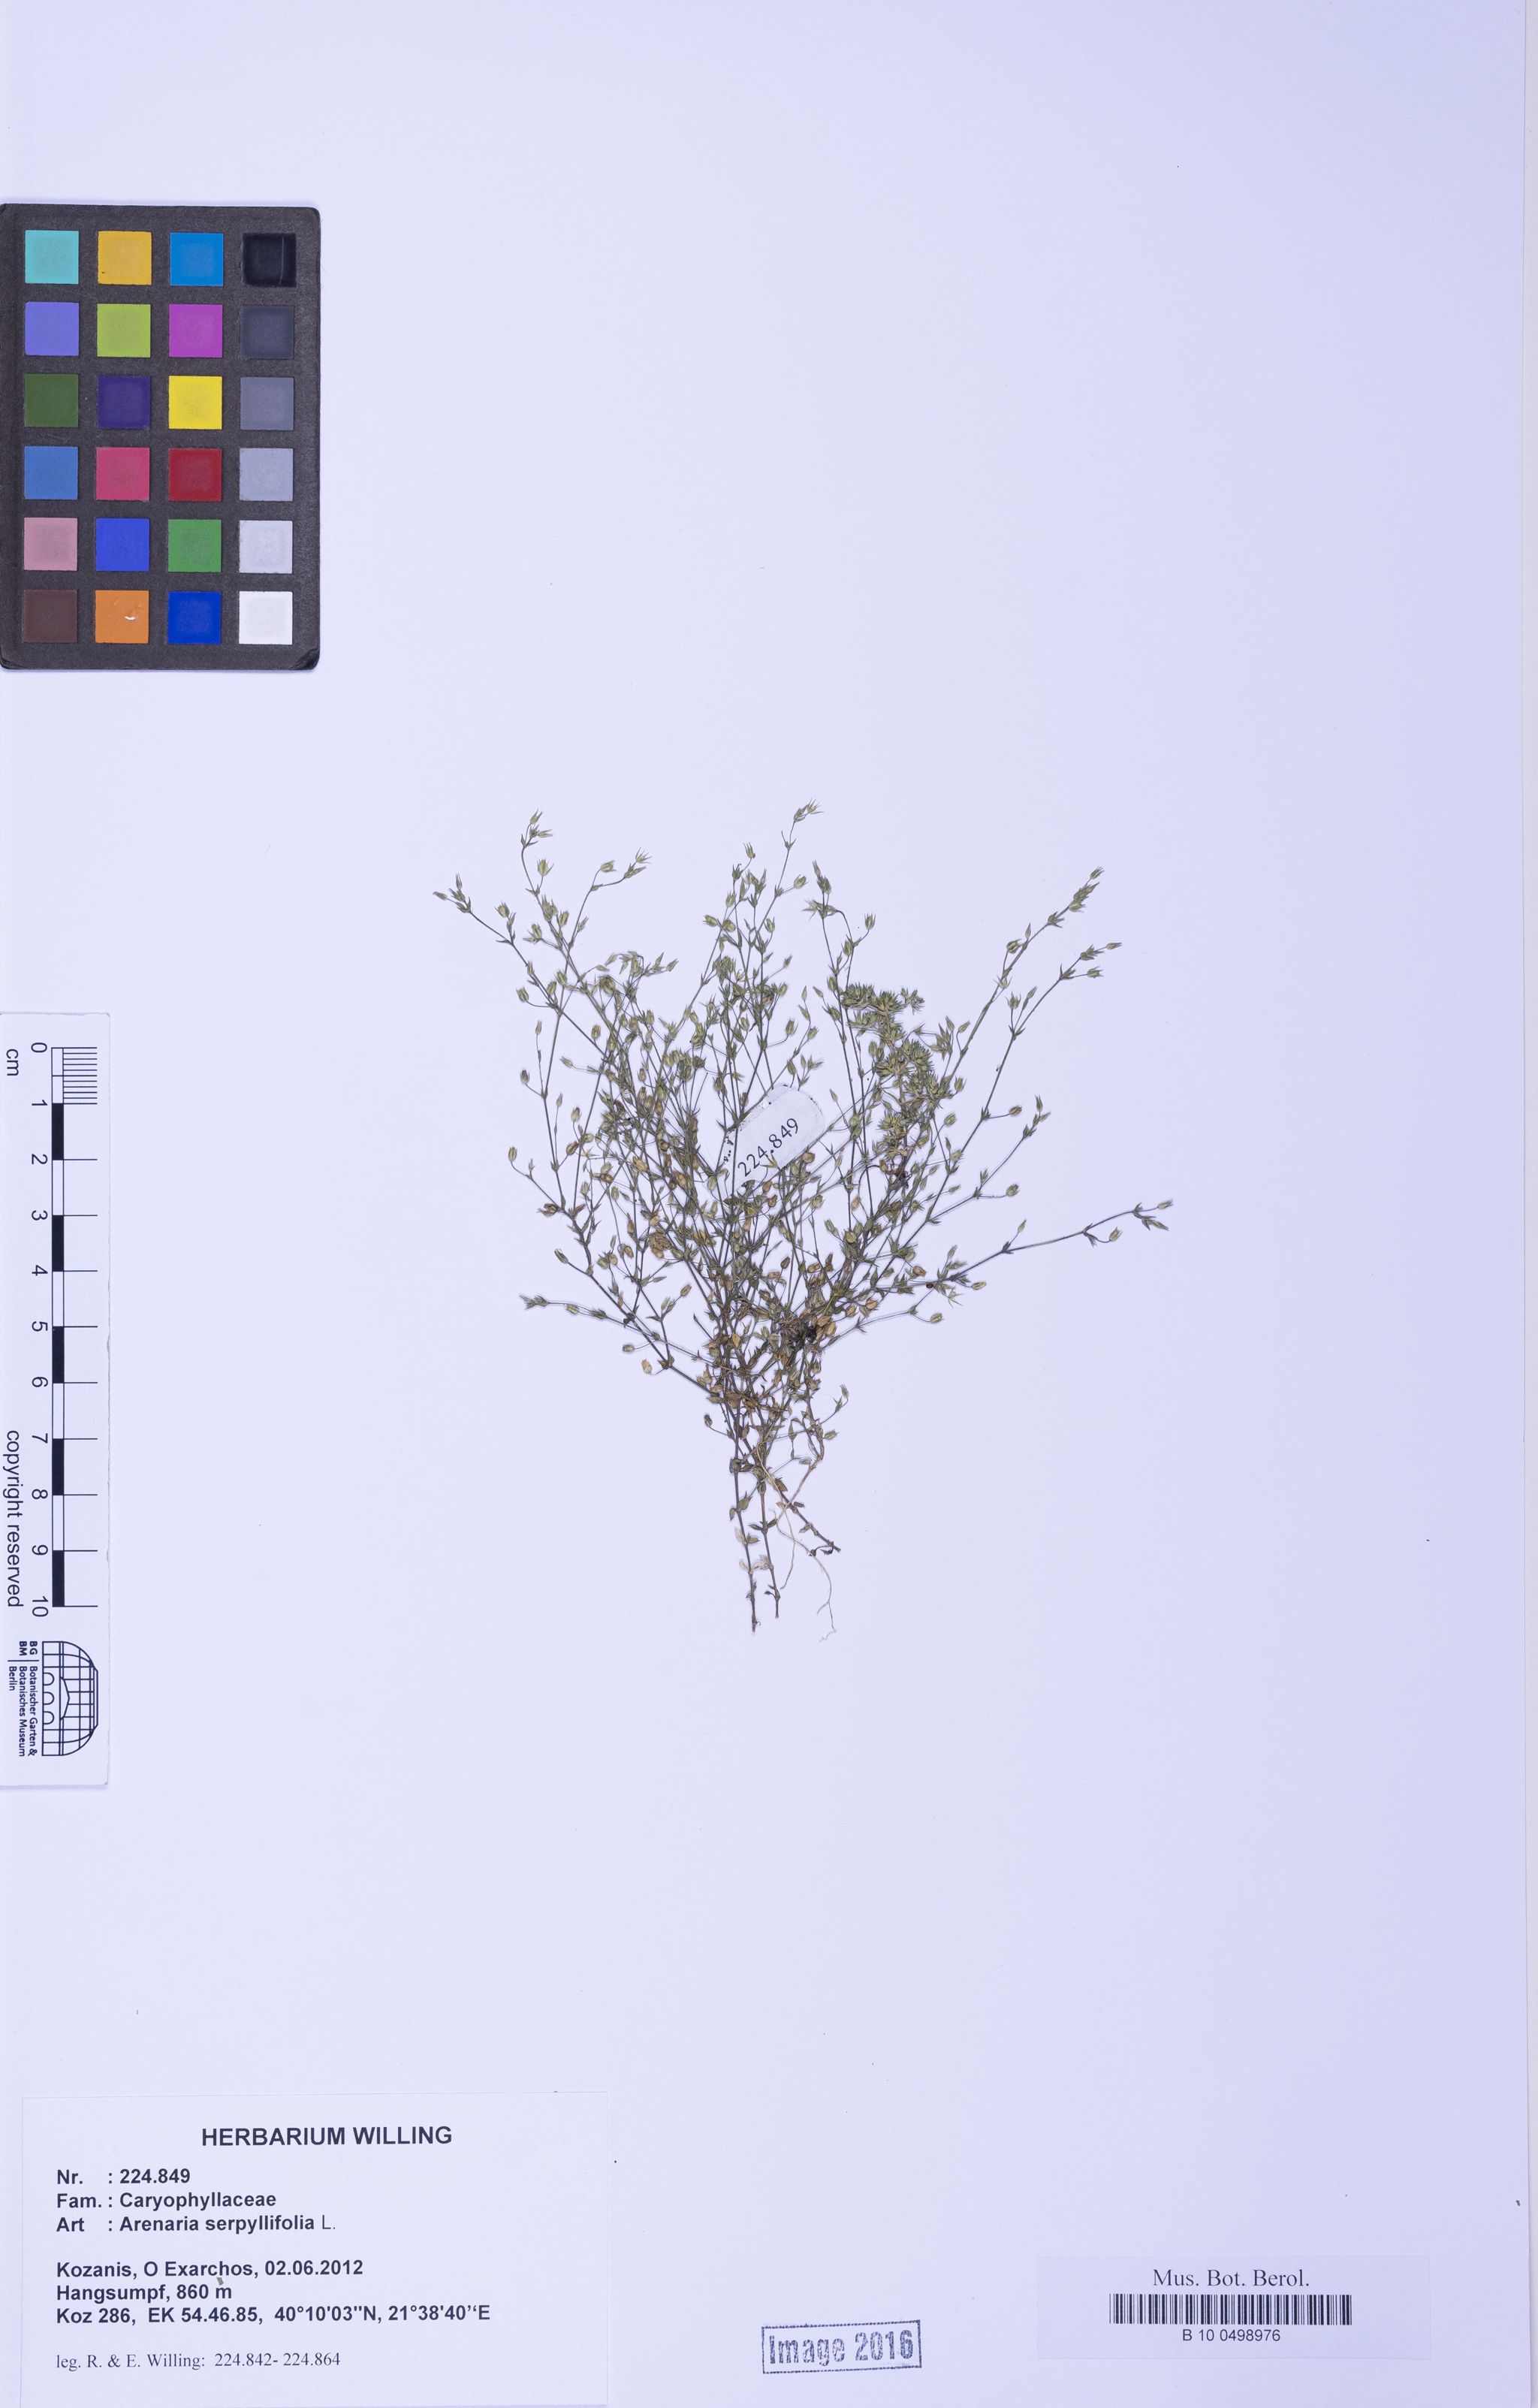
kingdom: Plantae
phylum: Tracheophyta
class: Magnoliopsida
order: Caryophyllales
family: Caryophyllaceae
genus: Arenaria
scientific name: Arenaria serpyllifolia
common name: Thyme-leaved sandwort
